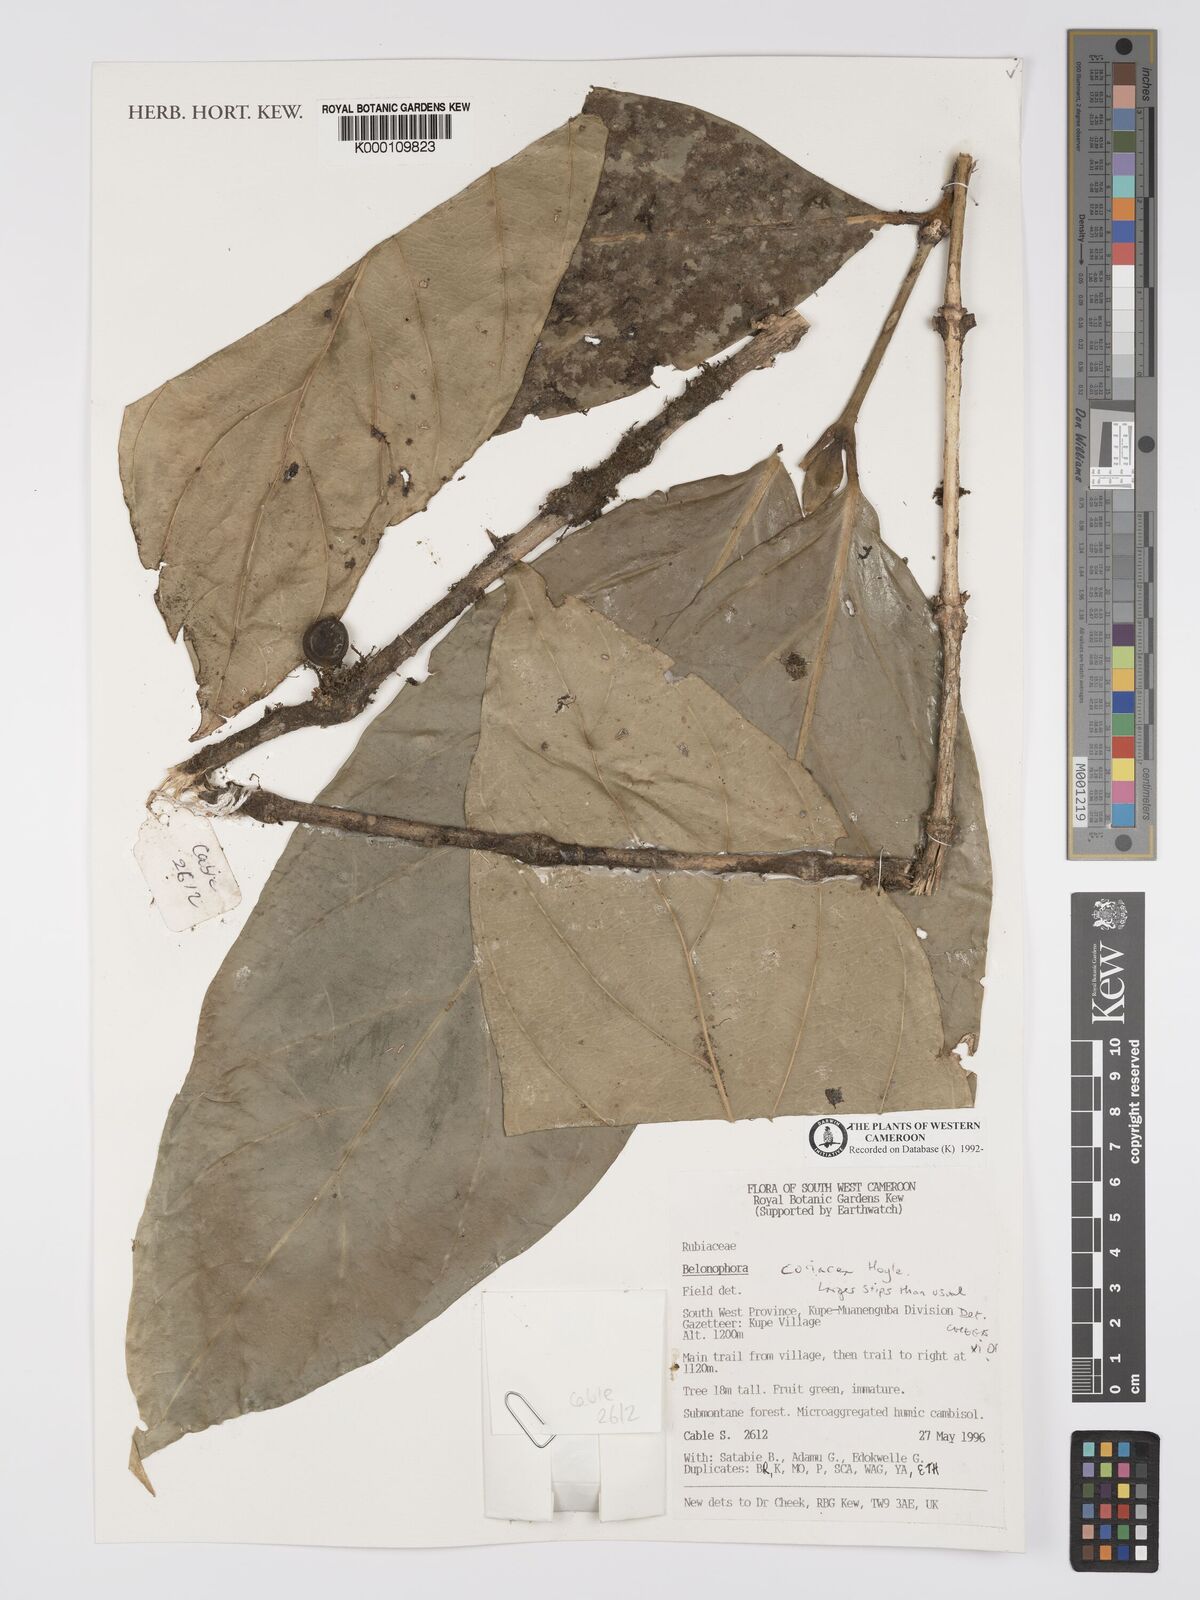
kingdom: Plantae
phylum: Tracheophyta
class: Magnoliopsida
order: Gentianales
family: Rubiaceae
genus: Belonophora
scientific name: Belonophora coriacea
